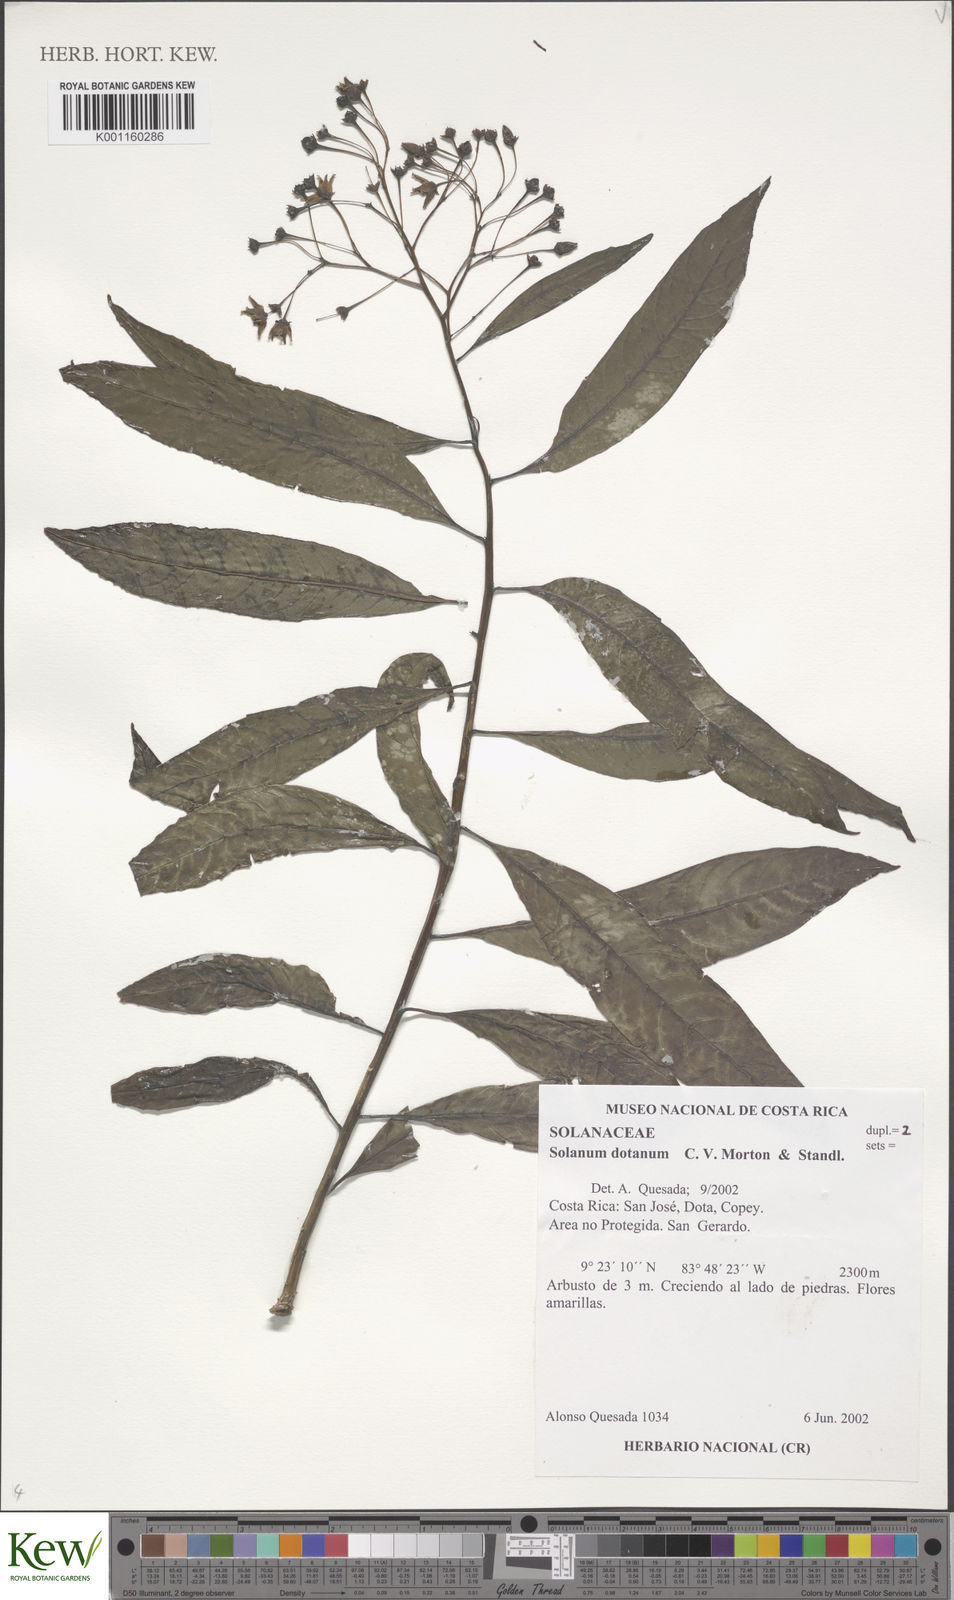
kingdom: Plantae
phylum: Tracheophyta
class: Magnoliopsida
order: Solanales
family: Solanaceae
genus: Solanum
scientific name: Solanum aligerum
